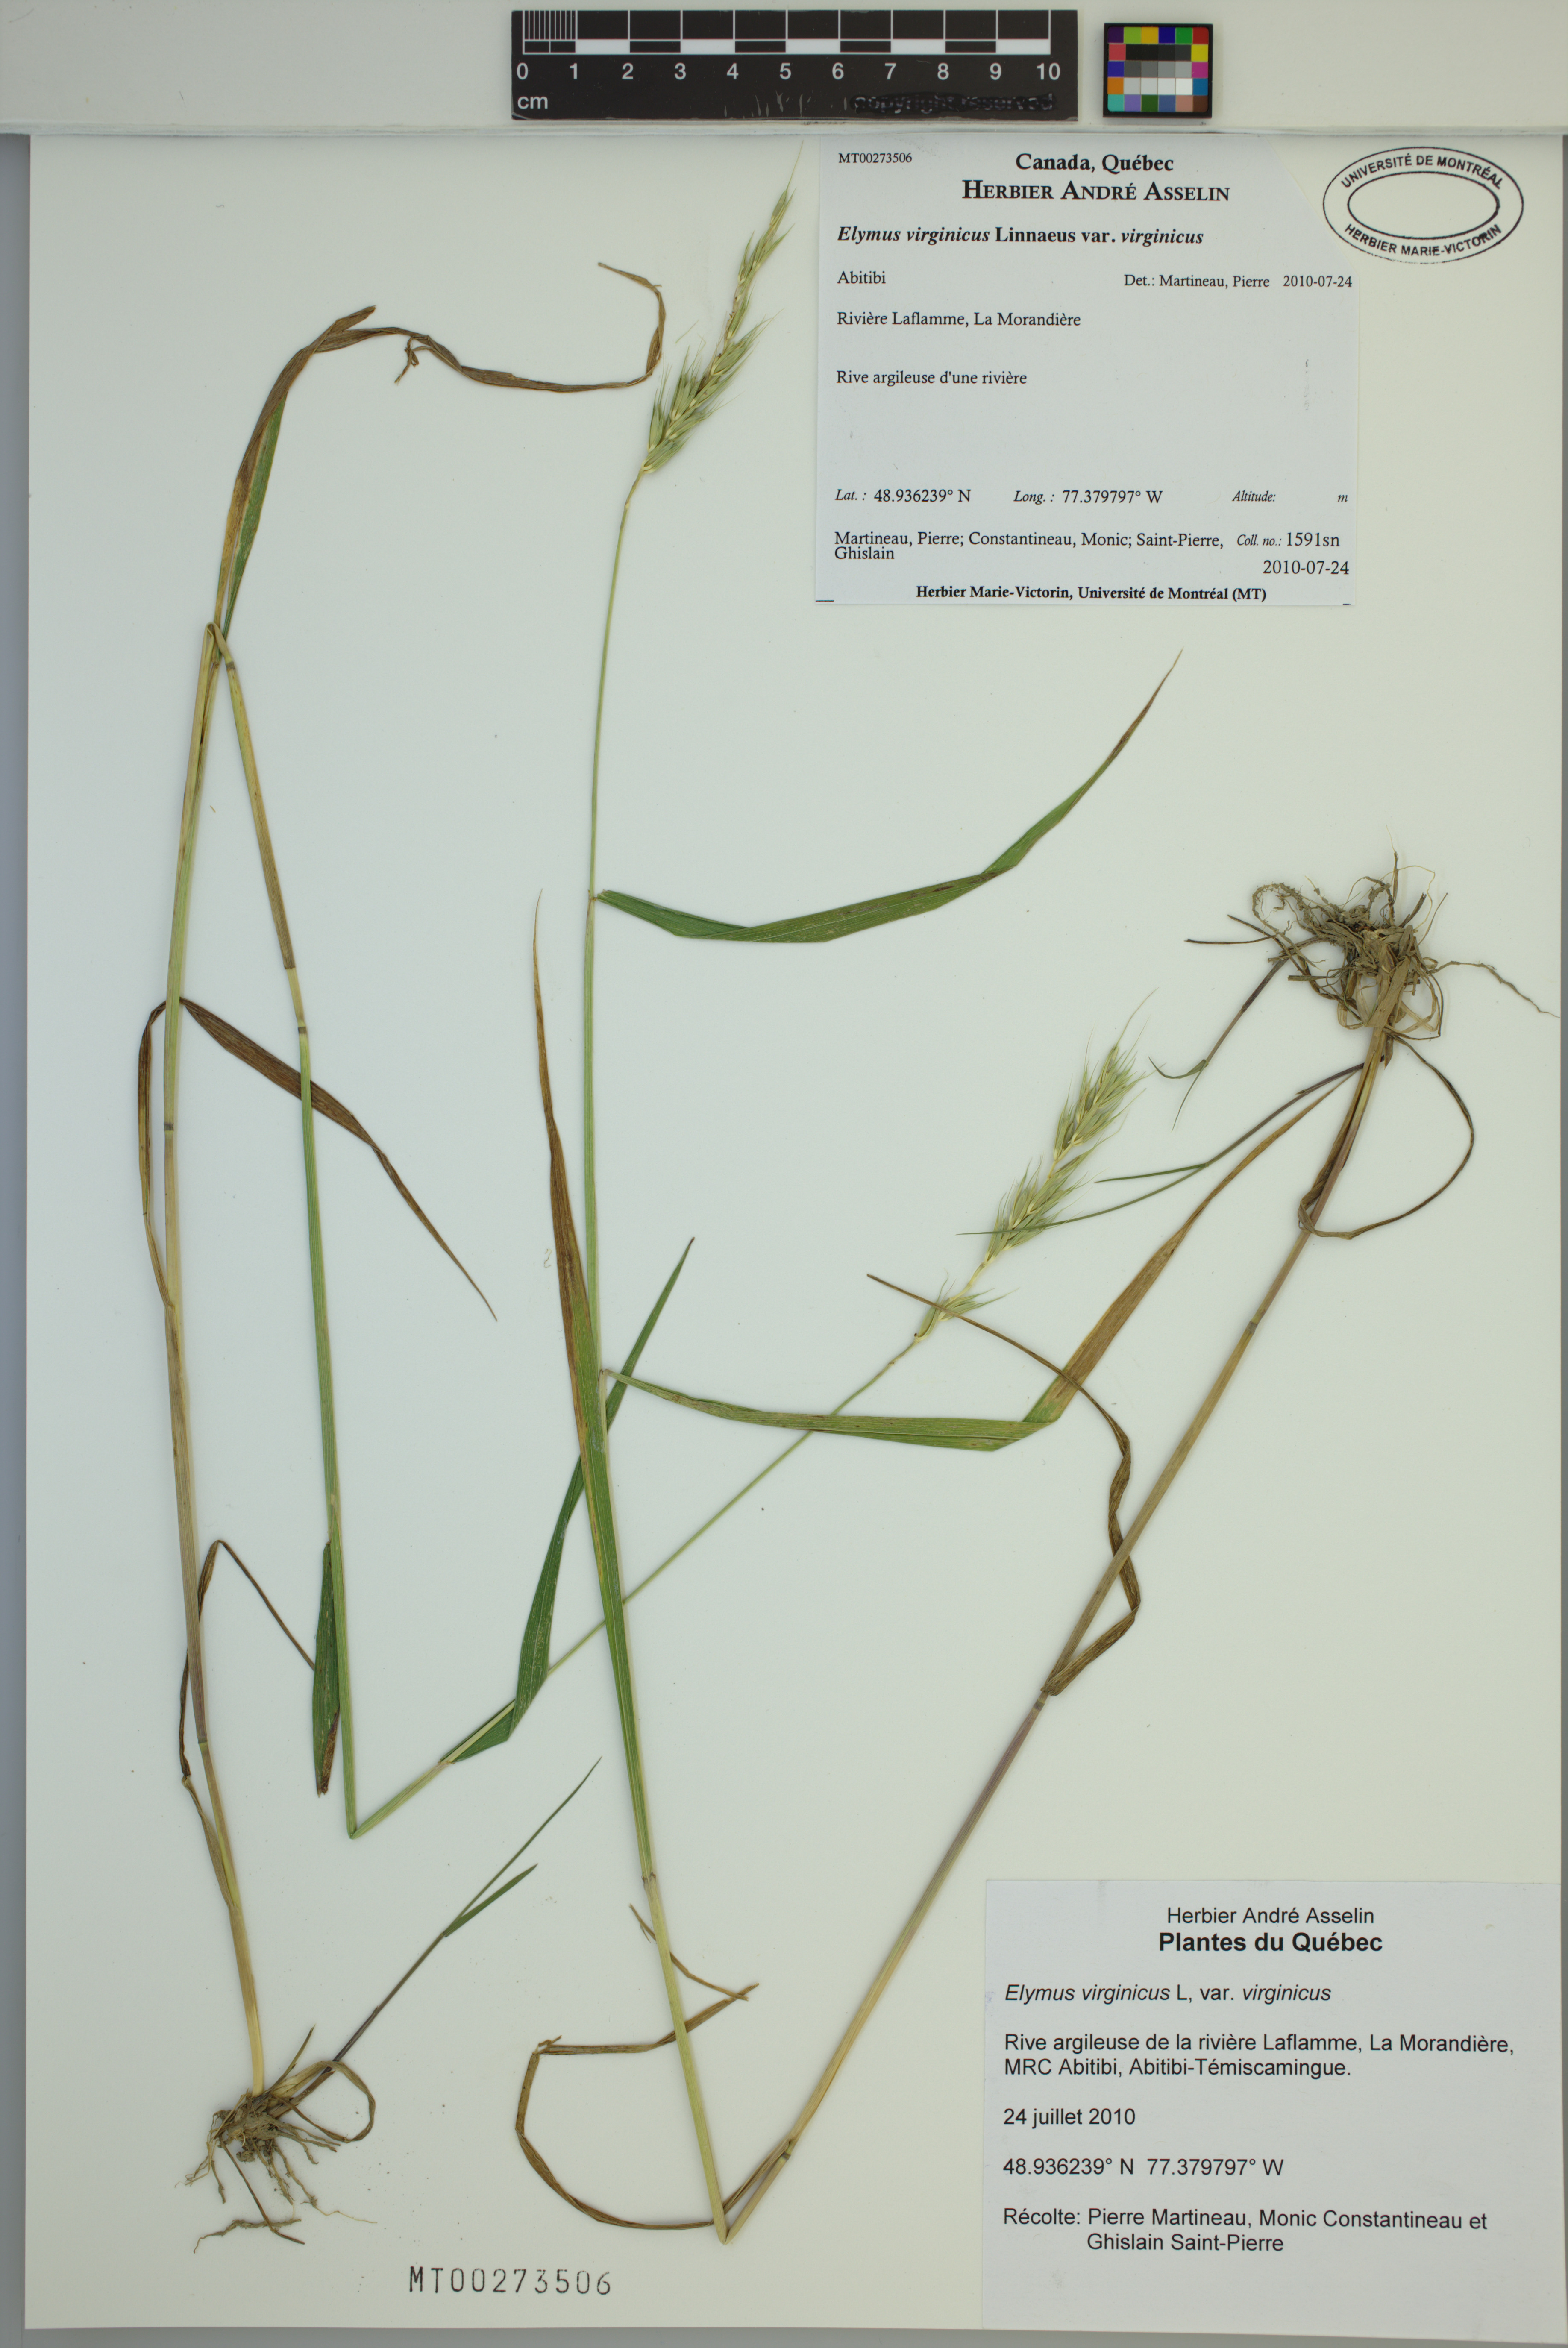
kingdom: Plantae
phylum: Tracheophyta
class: Liliopsida
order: Poales
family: Poaceae
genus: Elymus
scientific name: Elymus virginicus
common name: Common eastern wildrye
